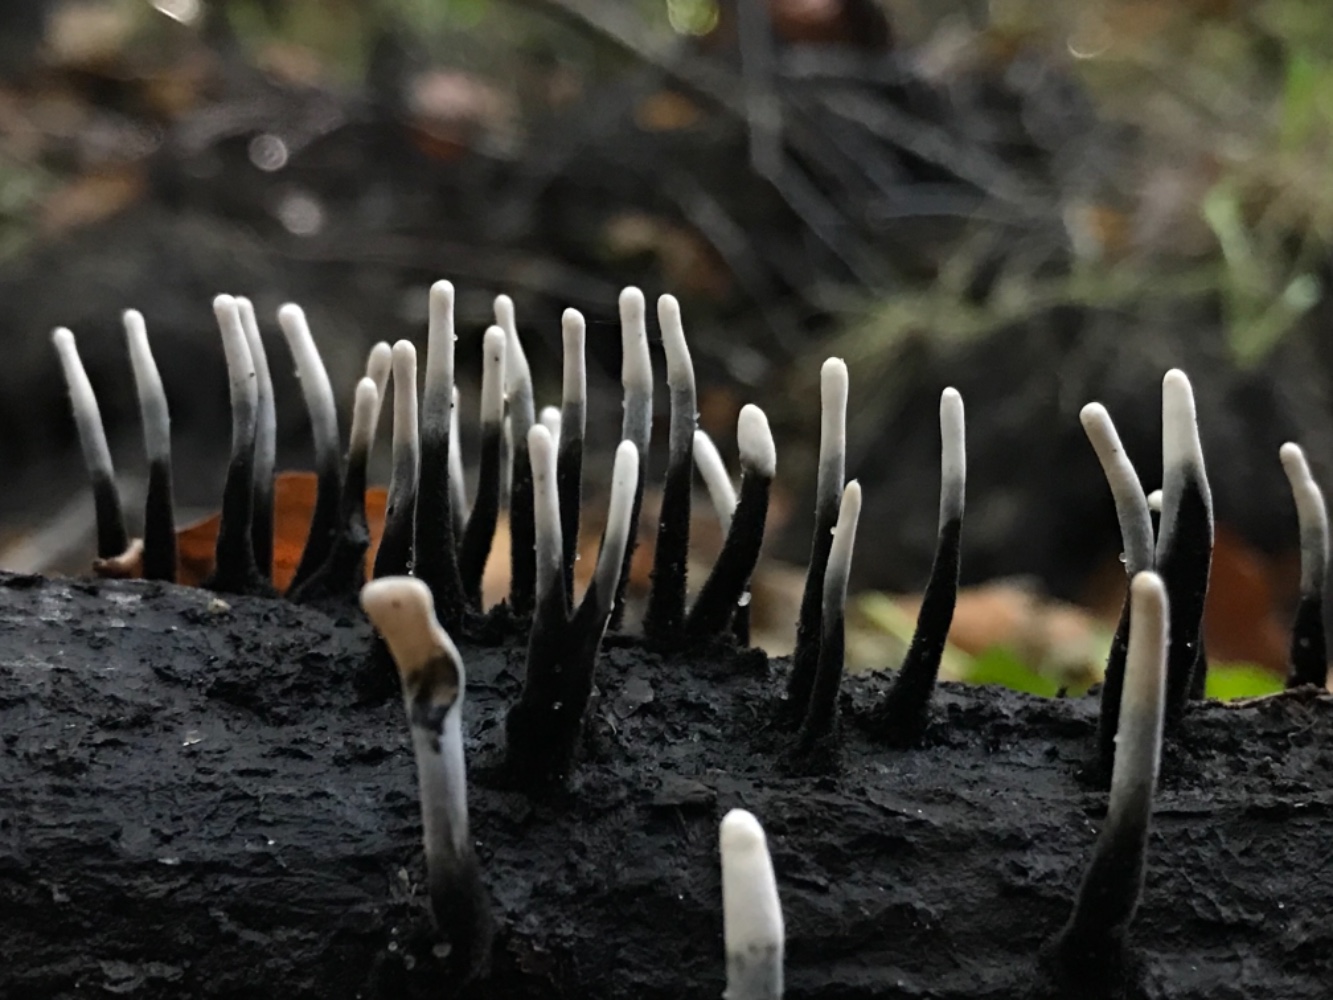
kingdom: Fungi
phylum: Ascomycota
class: Sordariomycetes
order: Xylariales
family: Xylariaceae
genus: Xylaria
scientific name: Xylaria hypoxylon
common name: grenet stødsvamp
